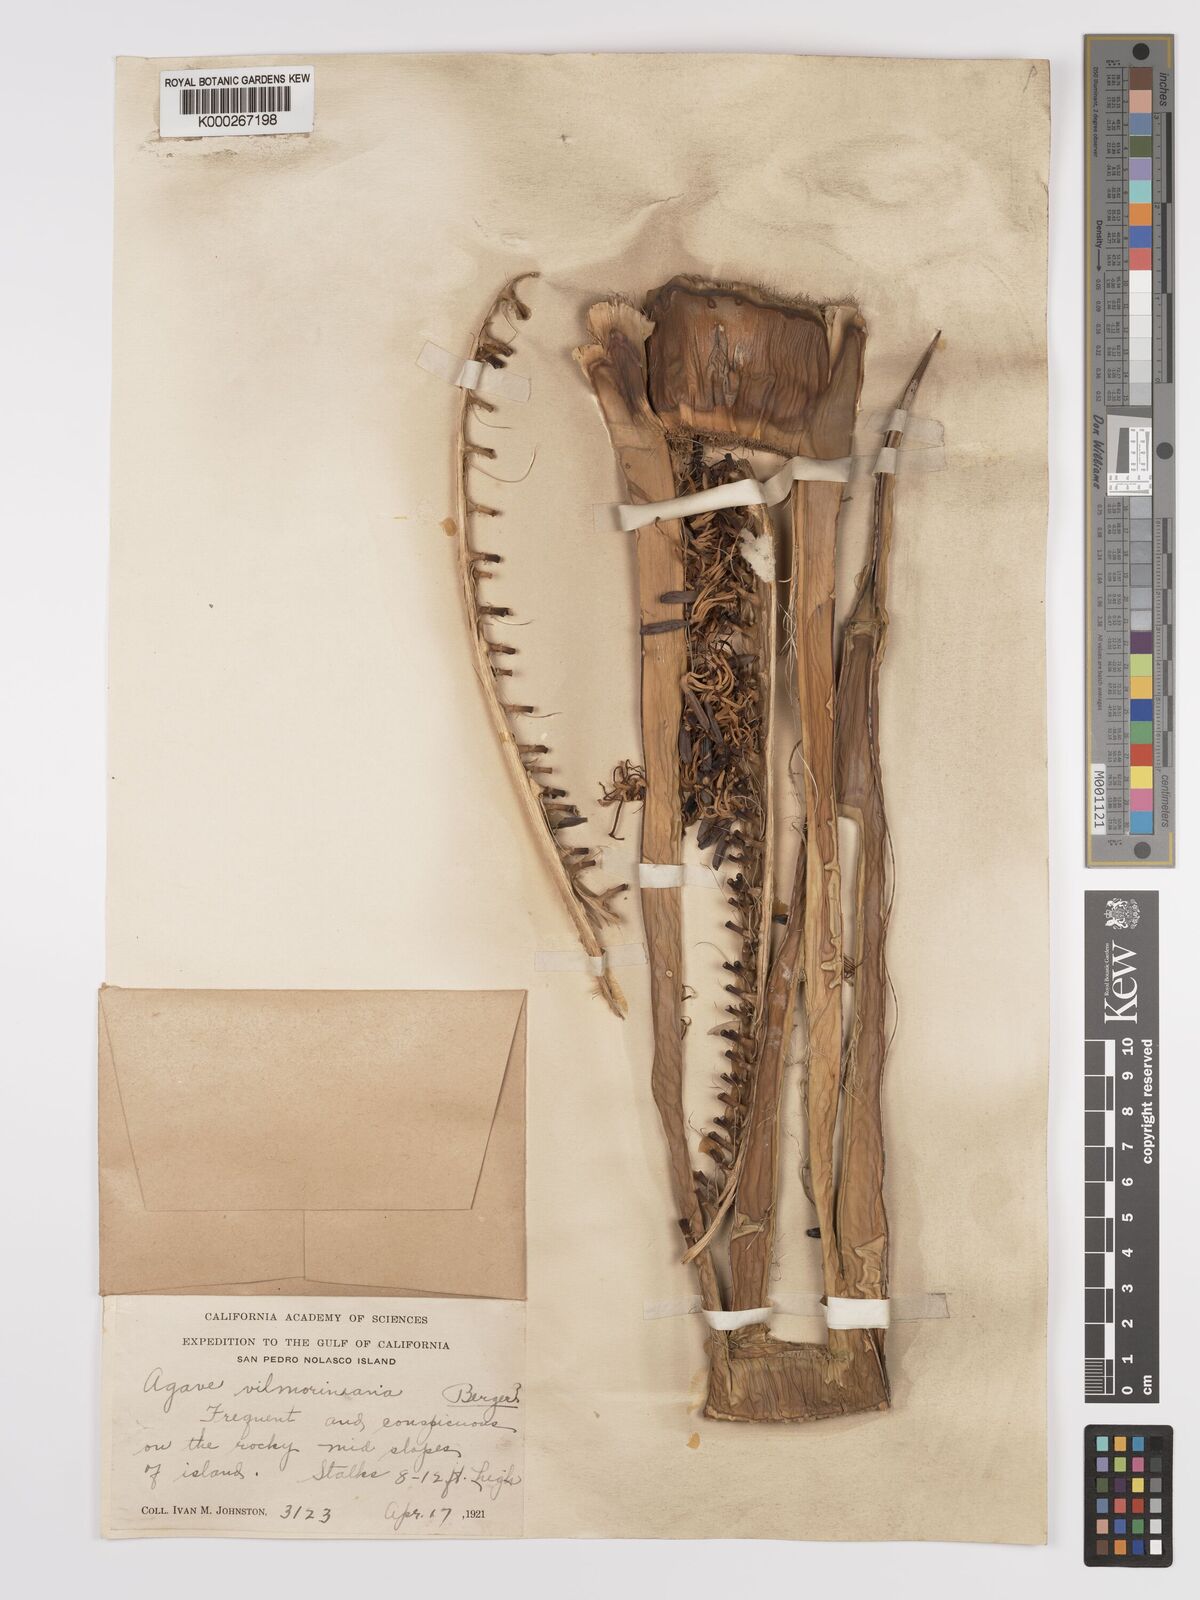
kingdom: Plantae
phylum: Tracheophyta
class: Liliopsida
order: Asparagales
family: Asparagaceae
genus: Agave
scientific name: Agave vilmoriniana
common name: Octopus plant
